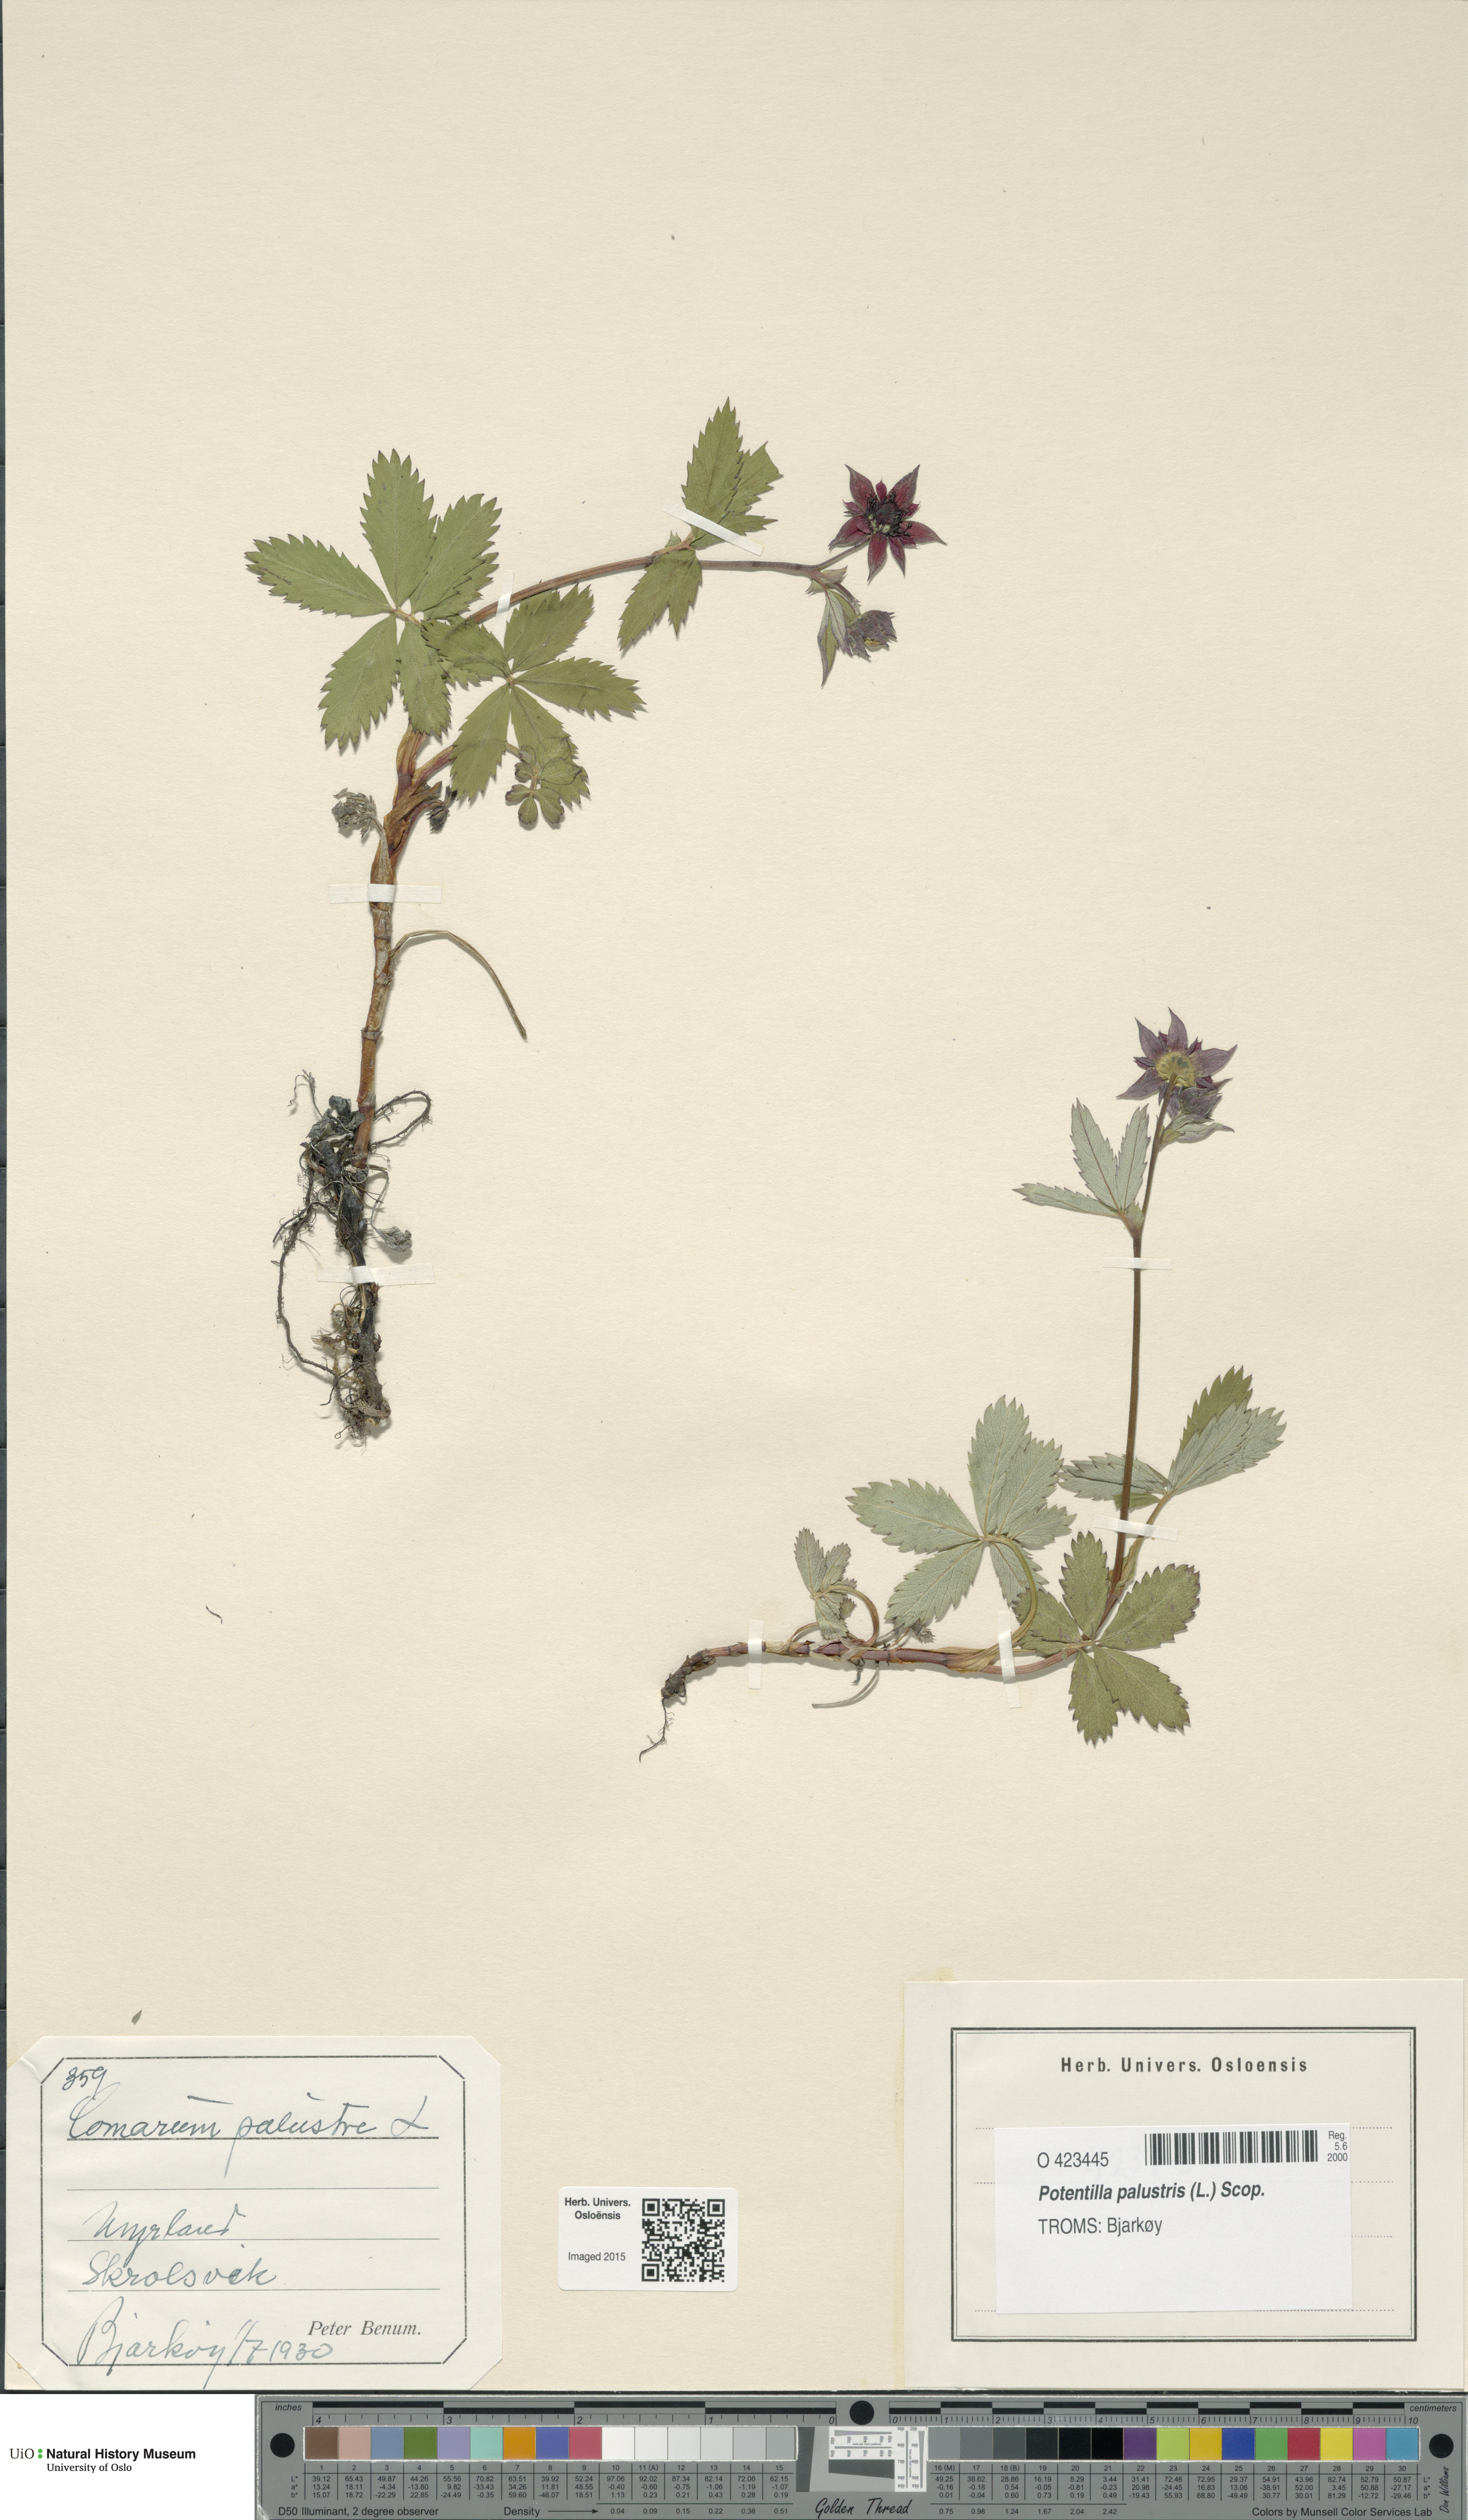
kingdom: Plantae
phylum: Tracheophyta
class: Magnoliopsida
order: Rosales
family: Rosaceae
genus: Comarum
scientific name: Comarum palustre
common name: Marsh cinquefoil
